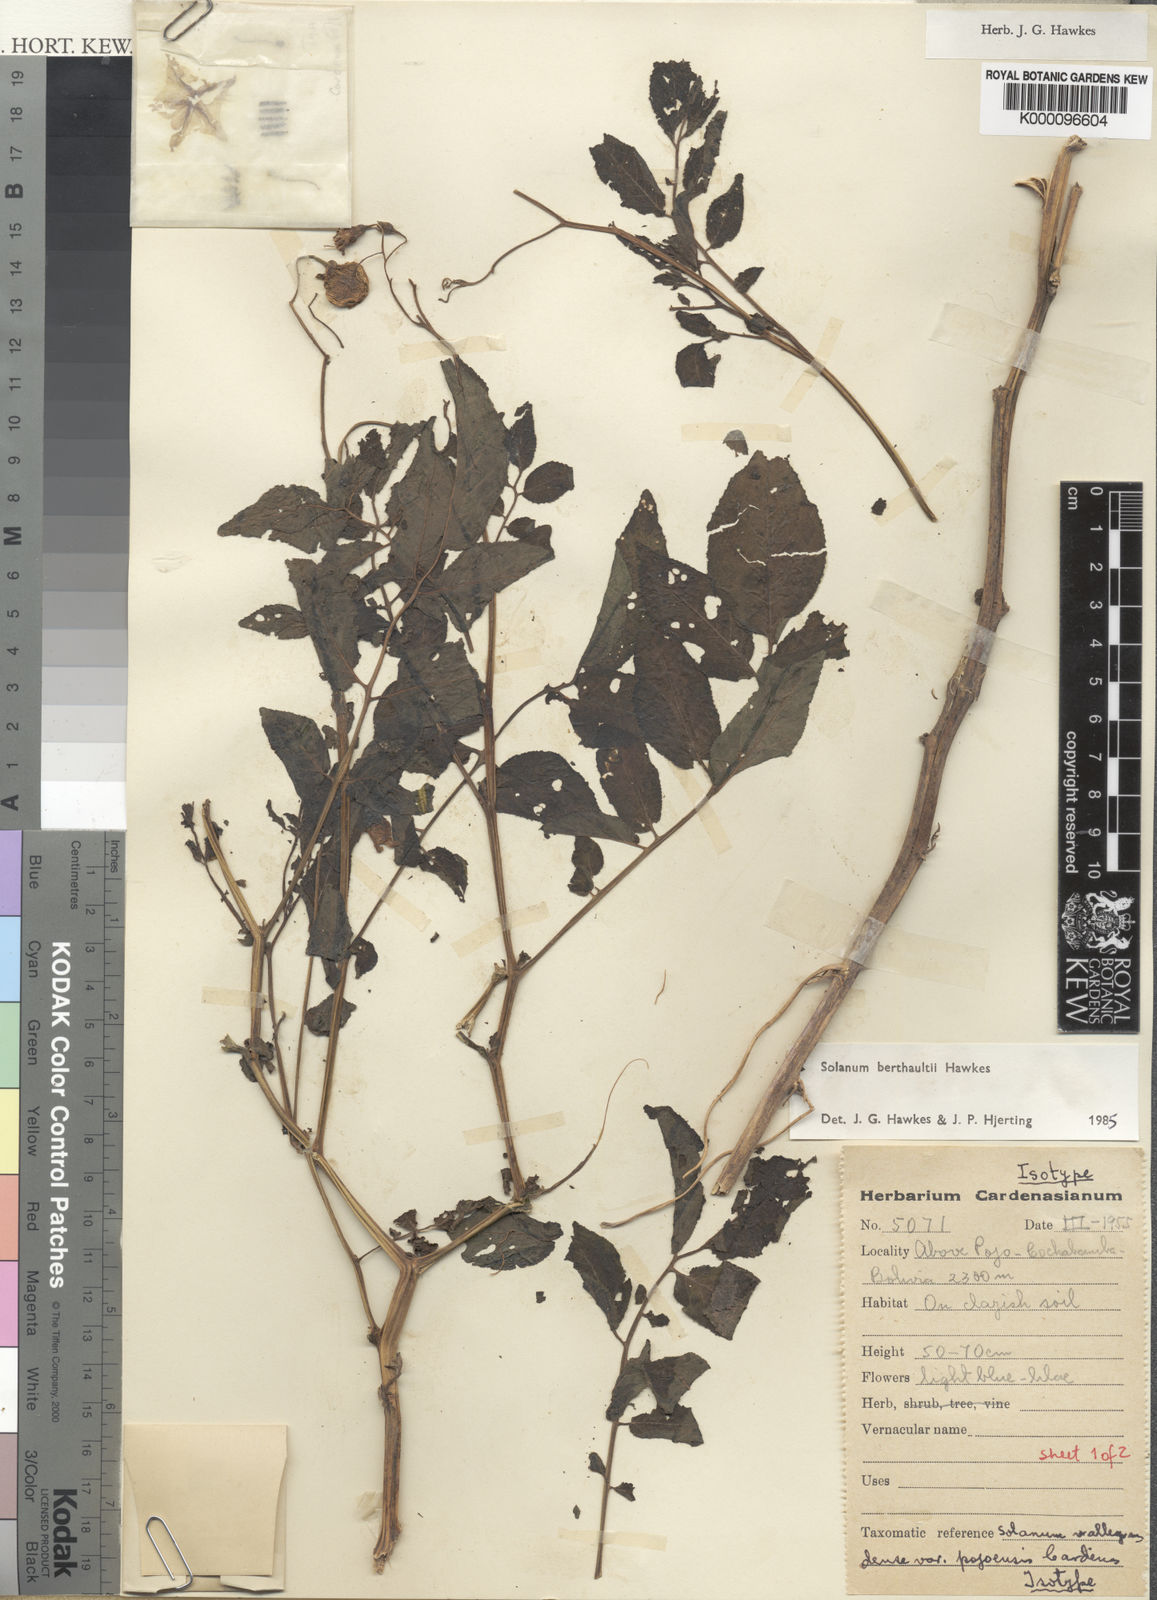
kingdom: Plantae
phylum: Tracheophyta
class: Magnoliopsida
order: Solanales
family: Solanaceae
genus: Solanum
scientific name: Solanum berthaultii
